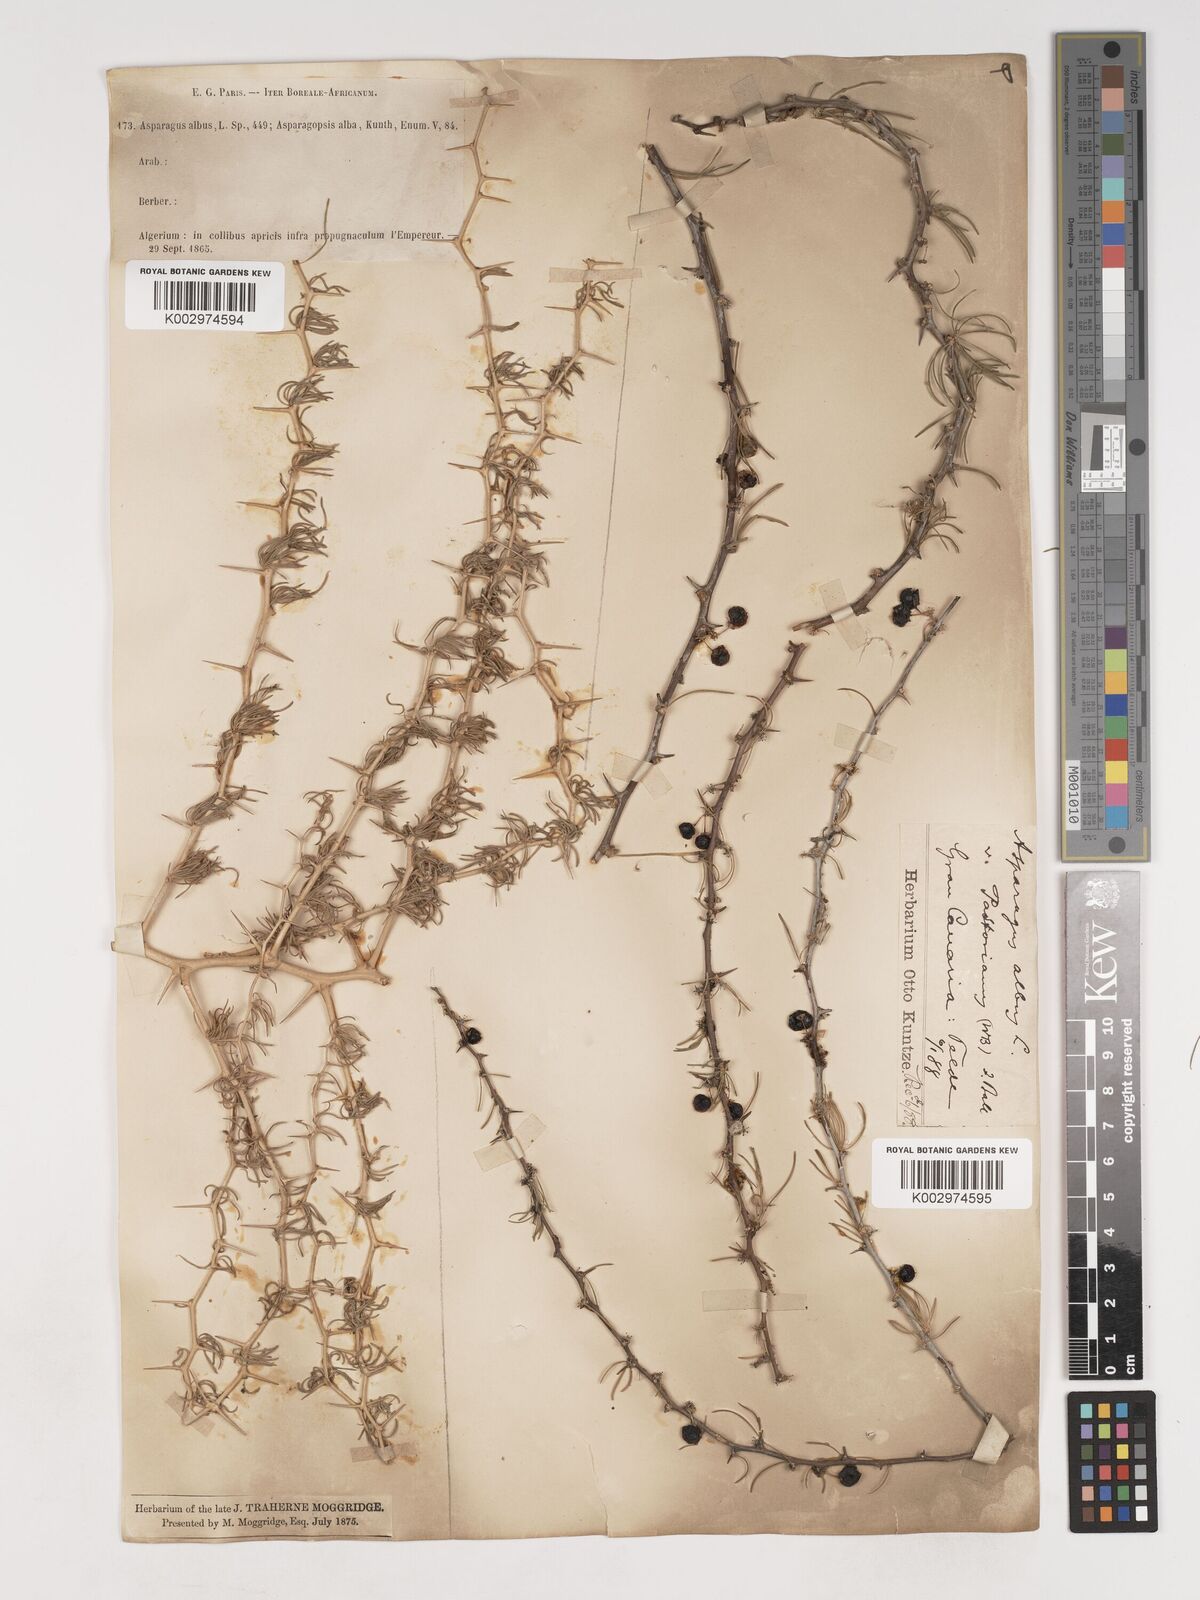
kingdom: Plantae
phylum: Tracheophyta
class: Liliopsida
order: Asparagales
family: Asparagaceae
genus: Asparagus
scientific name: Asparagus albus
